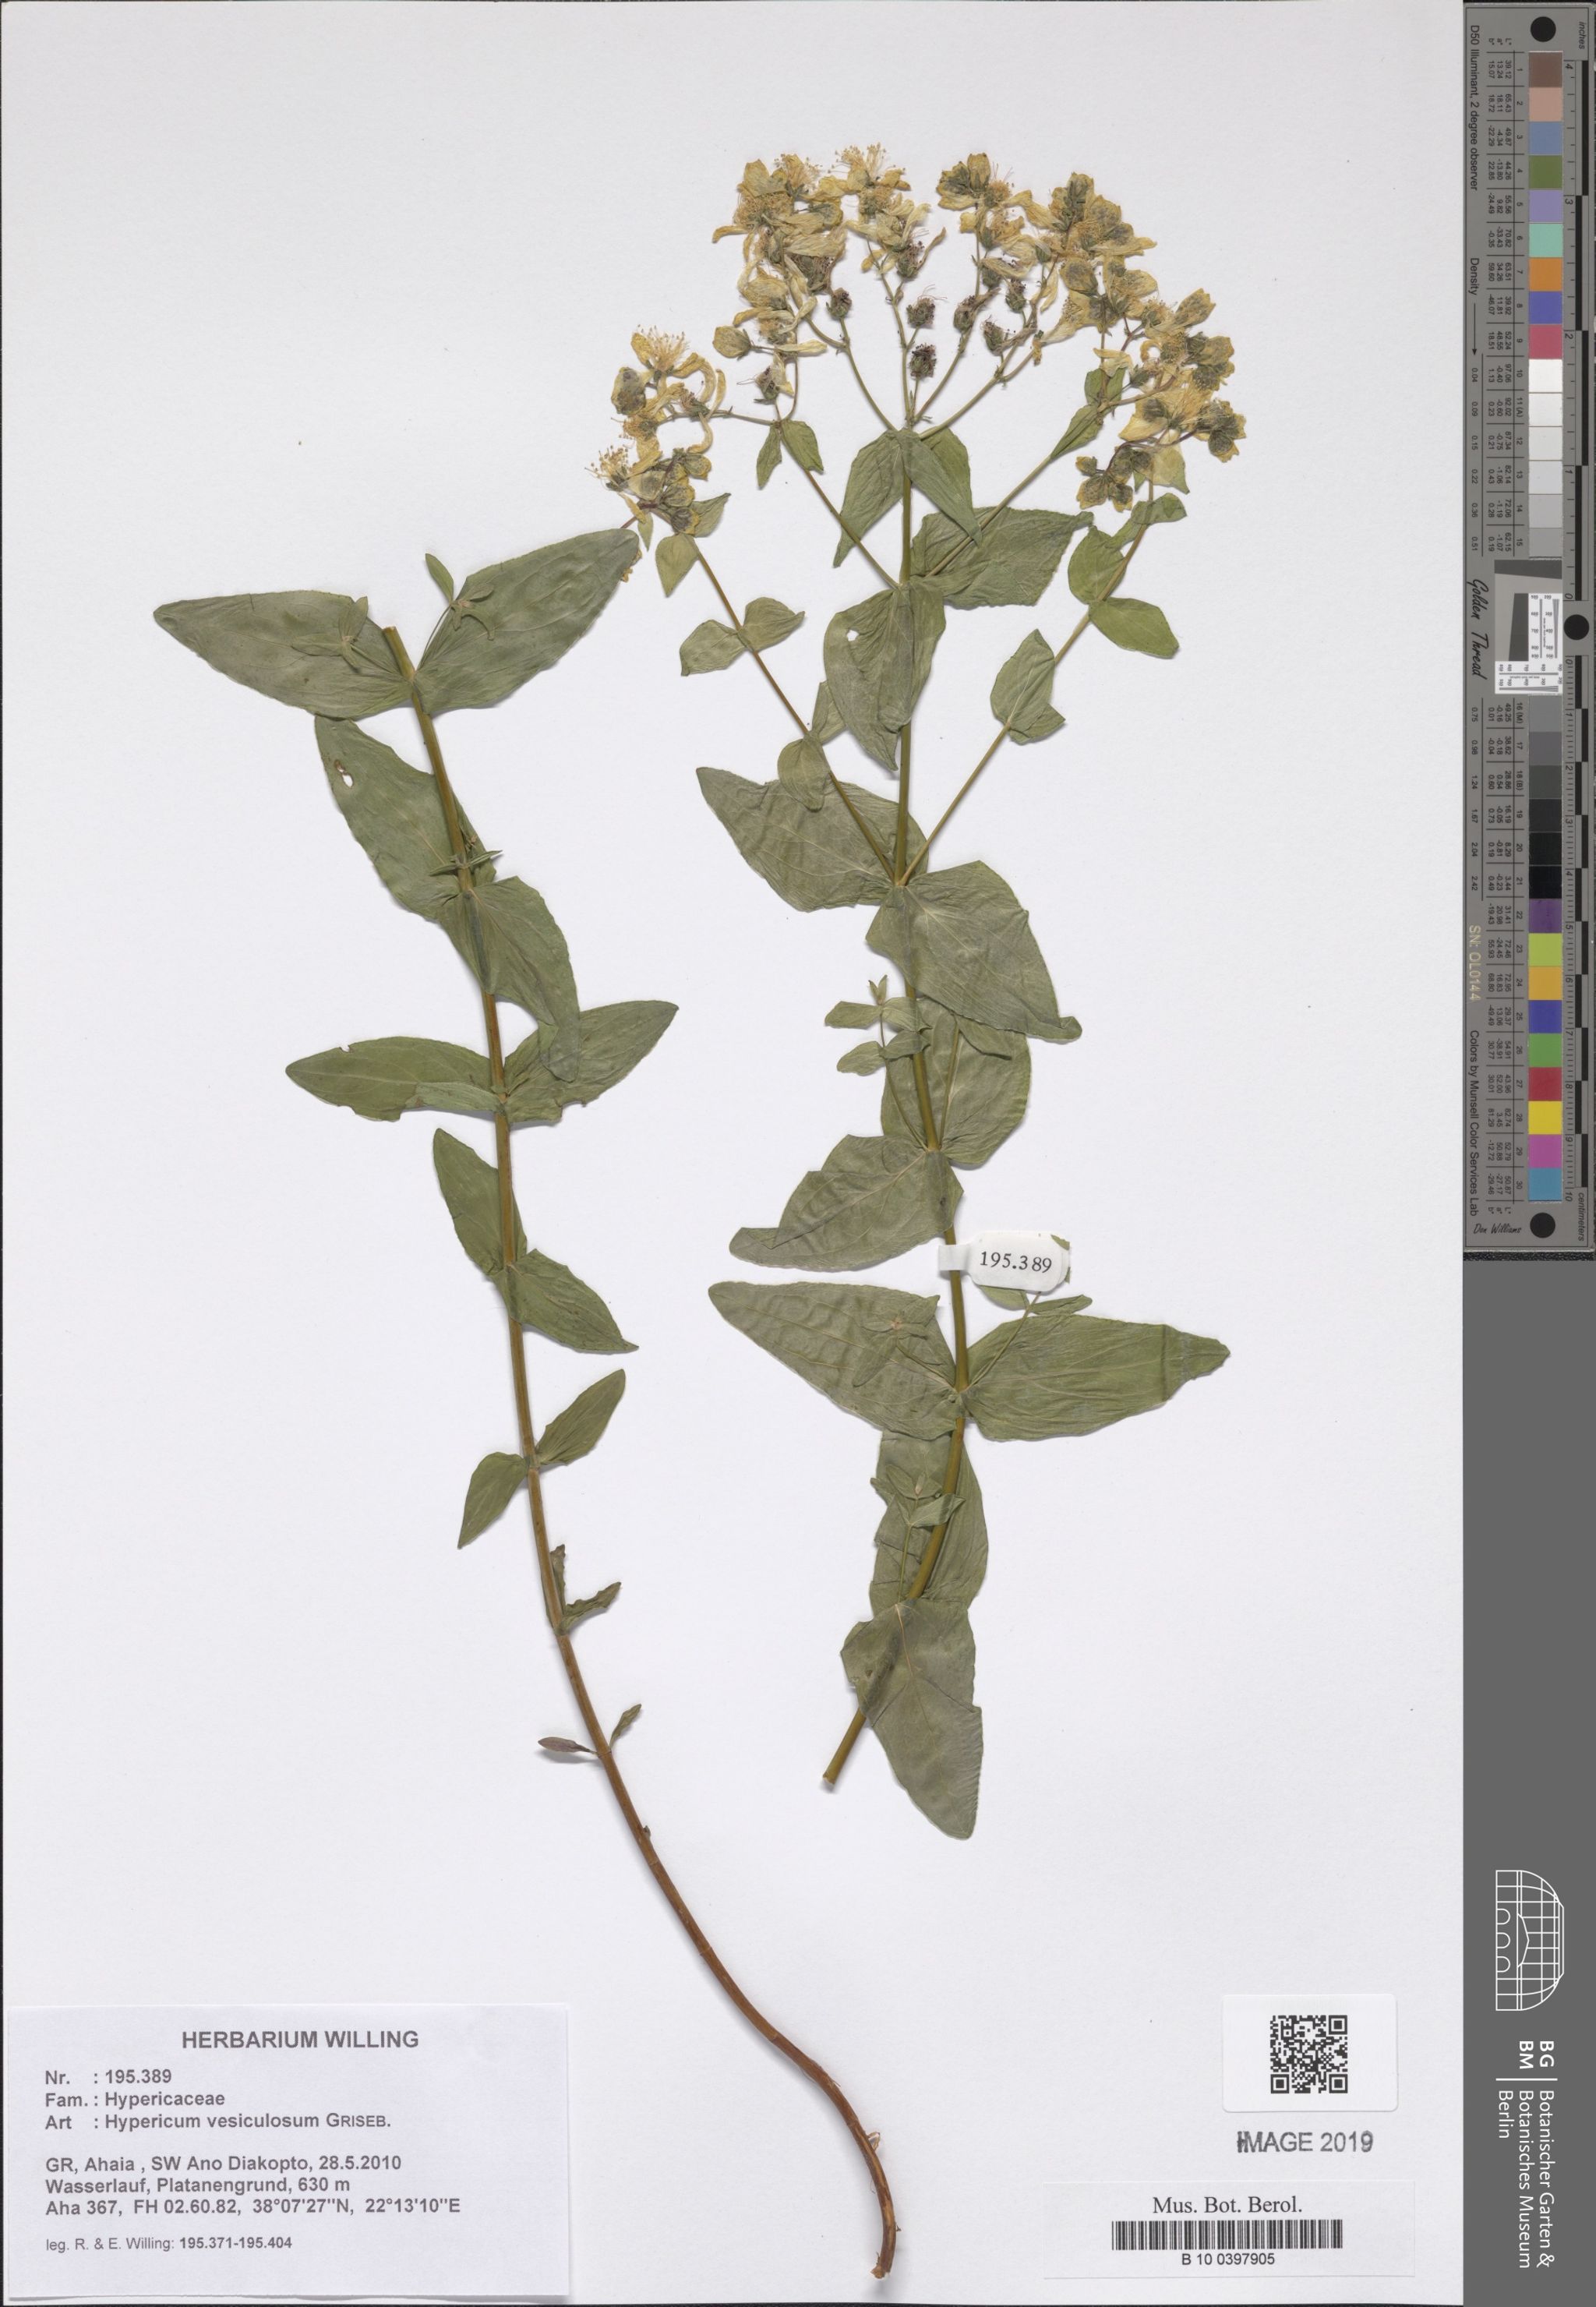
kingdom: Plantae
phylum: Tracheophyta
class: Magnoliopsida
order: Malpighiales
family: Hypericaceae
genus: Hypericum
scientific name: Hypericum vesiculosum
